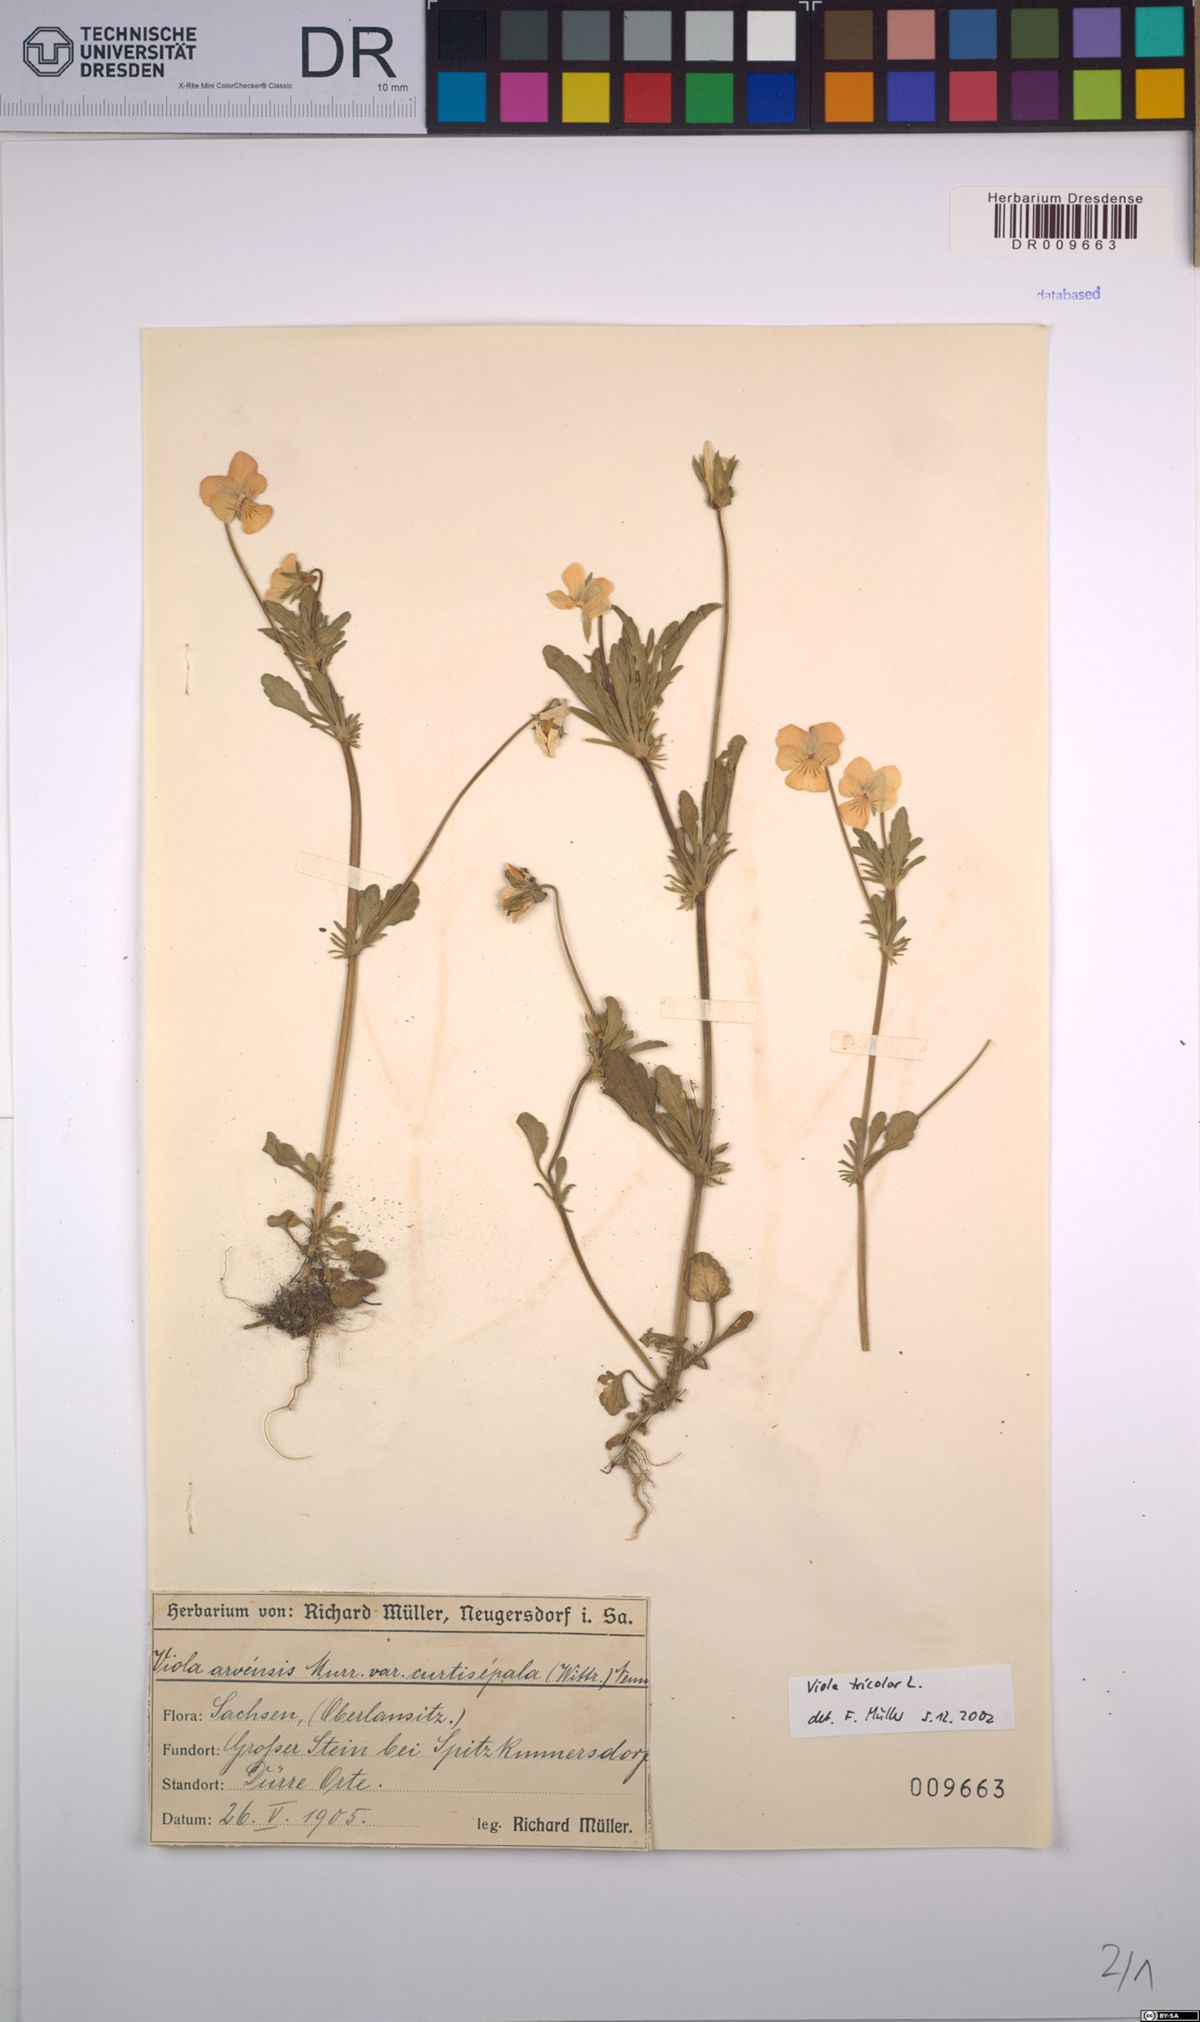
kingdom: Plantae
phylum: Tracheophyta
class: Magnoliopsida
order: Malpighiales
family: Violaceae
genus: Viola
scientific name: Viola tricolor
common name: Pansy
